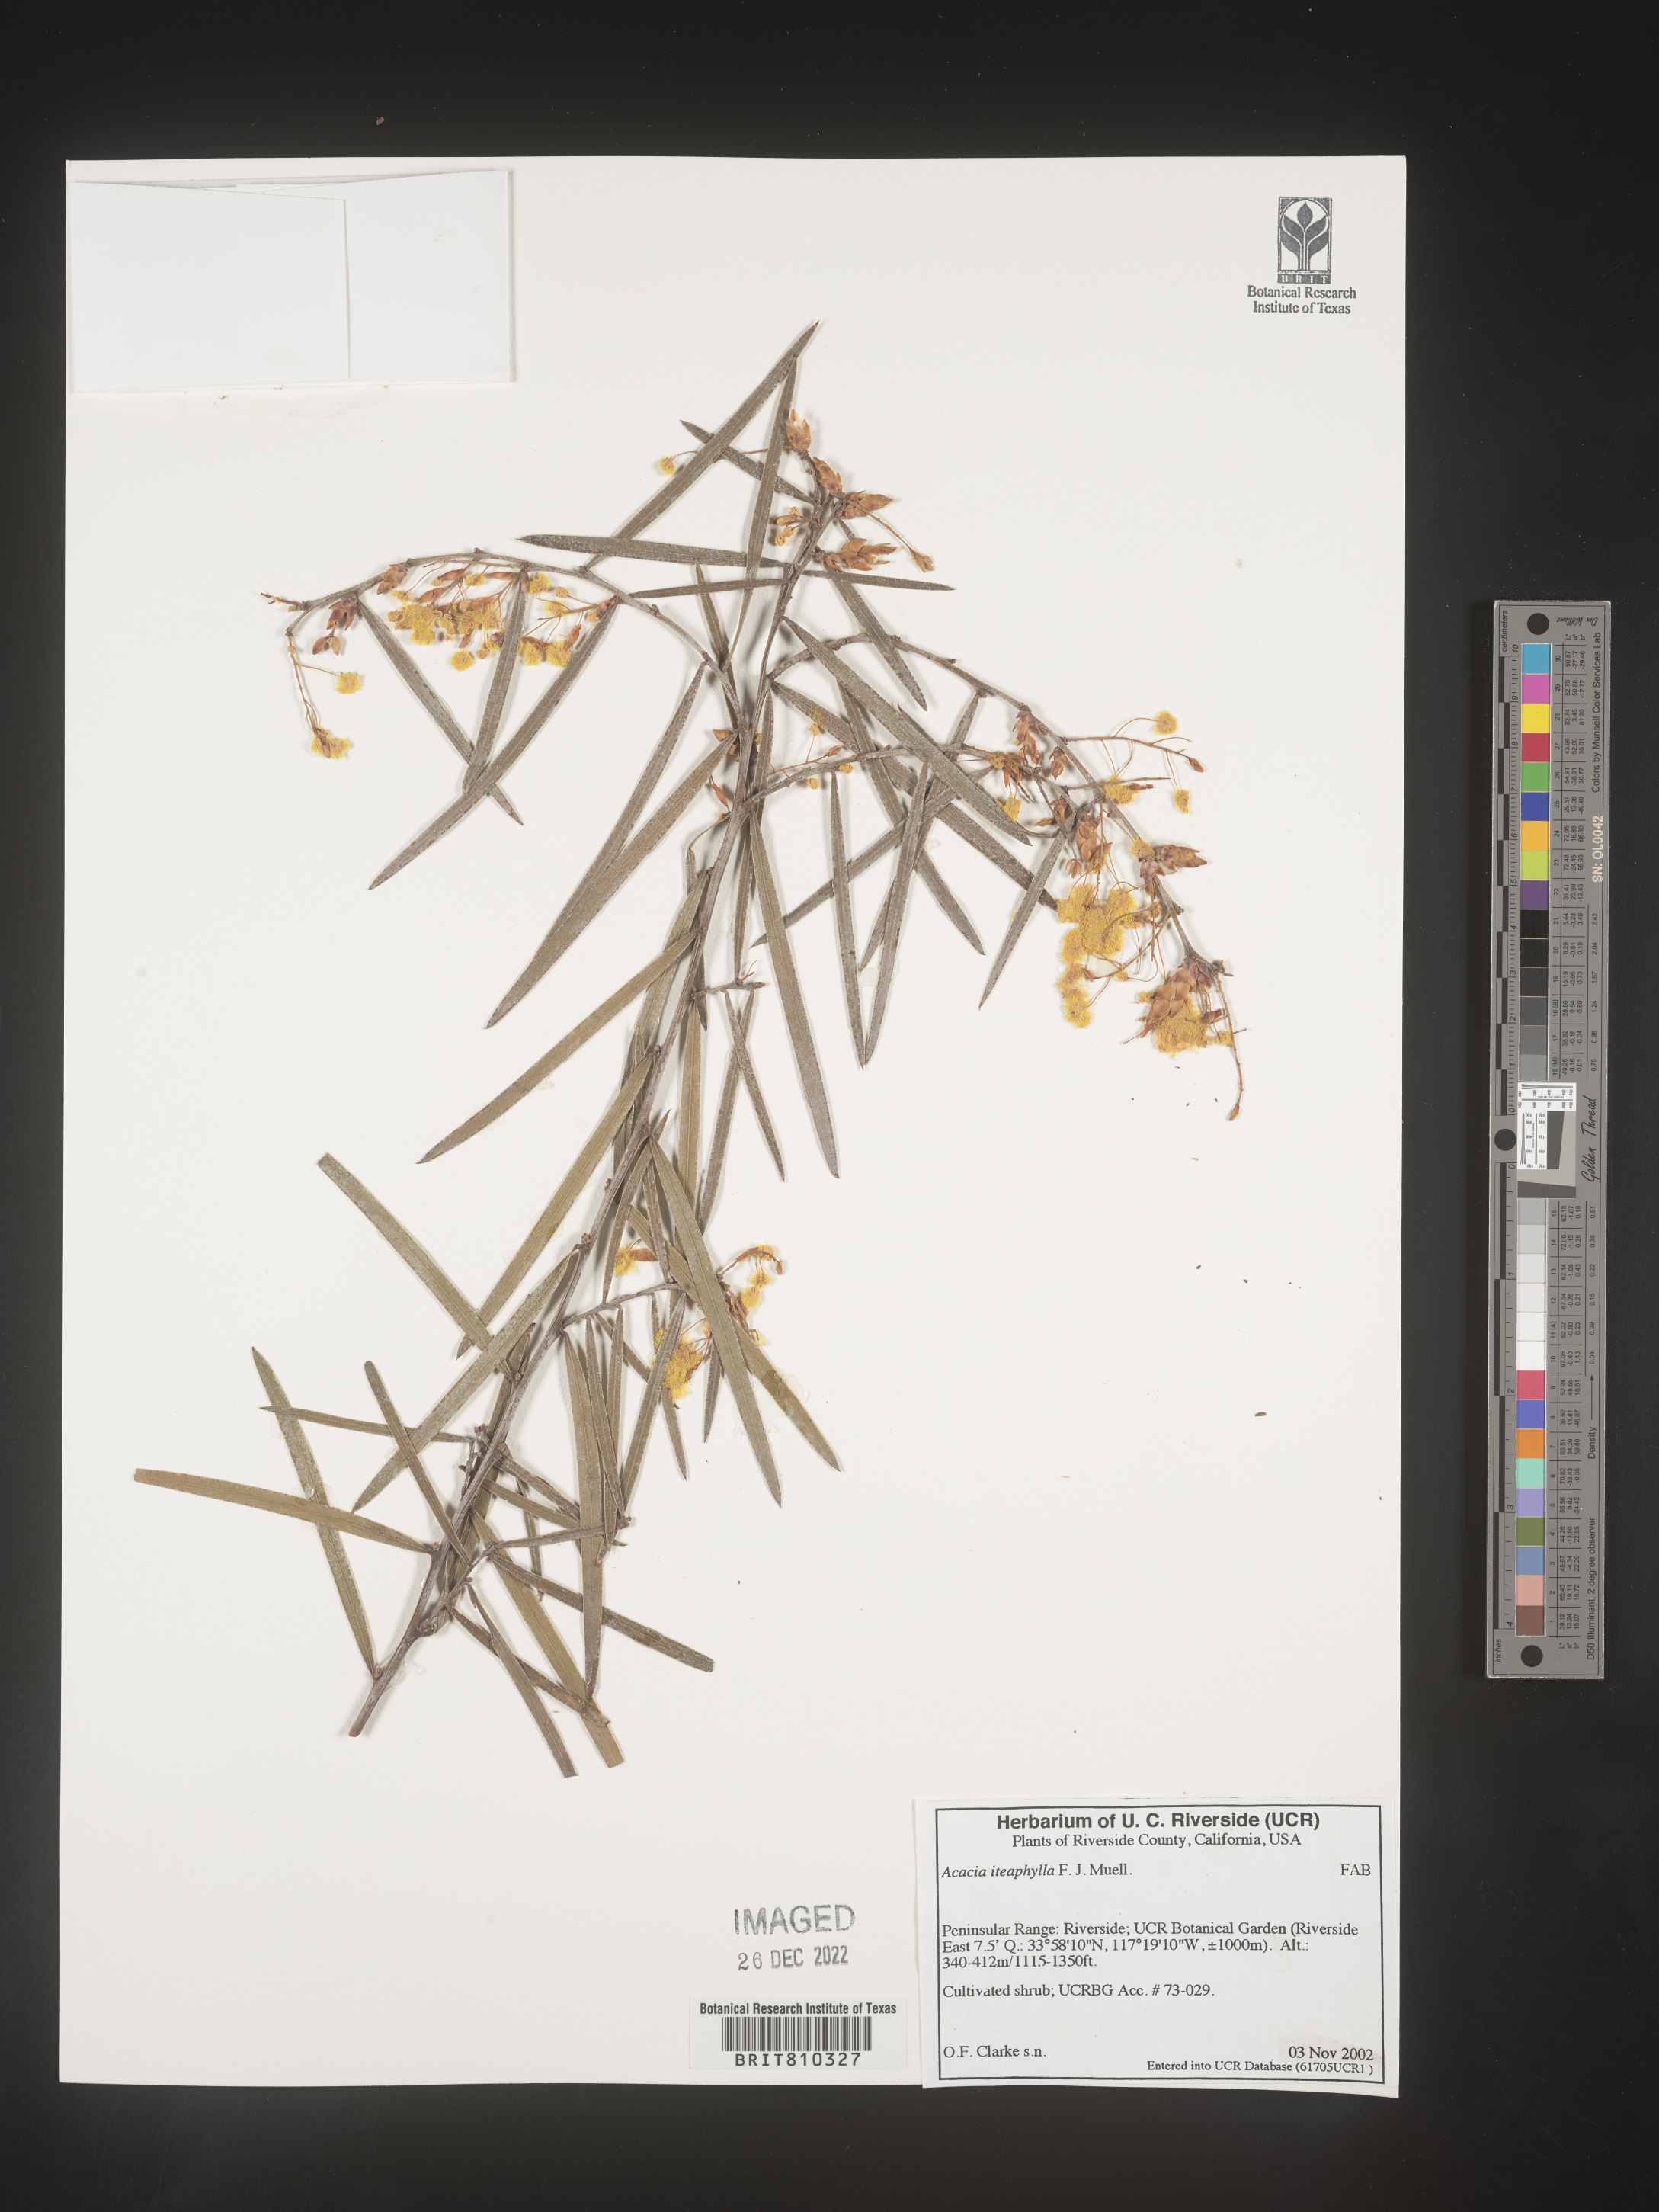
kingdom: Plantae
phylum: Tracheophyta
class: Magnoliopsida
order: Fabales
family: Fabaceae
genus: Acacia
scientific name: Acacia
